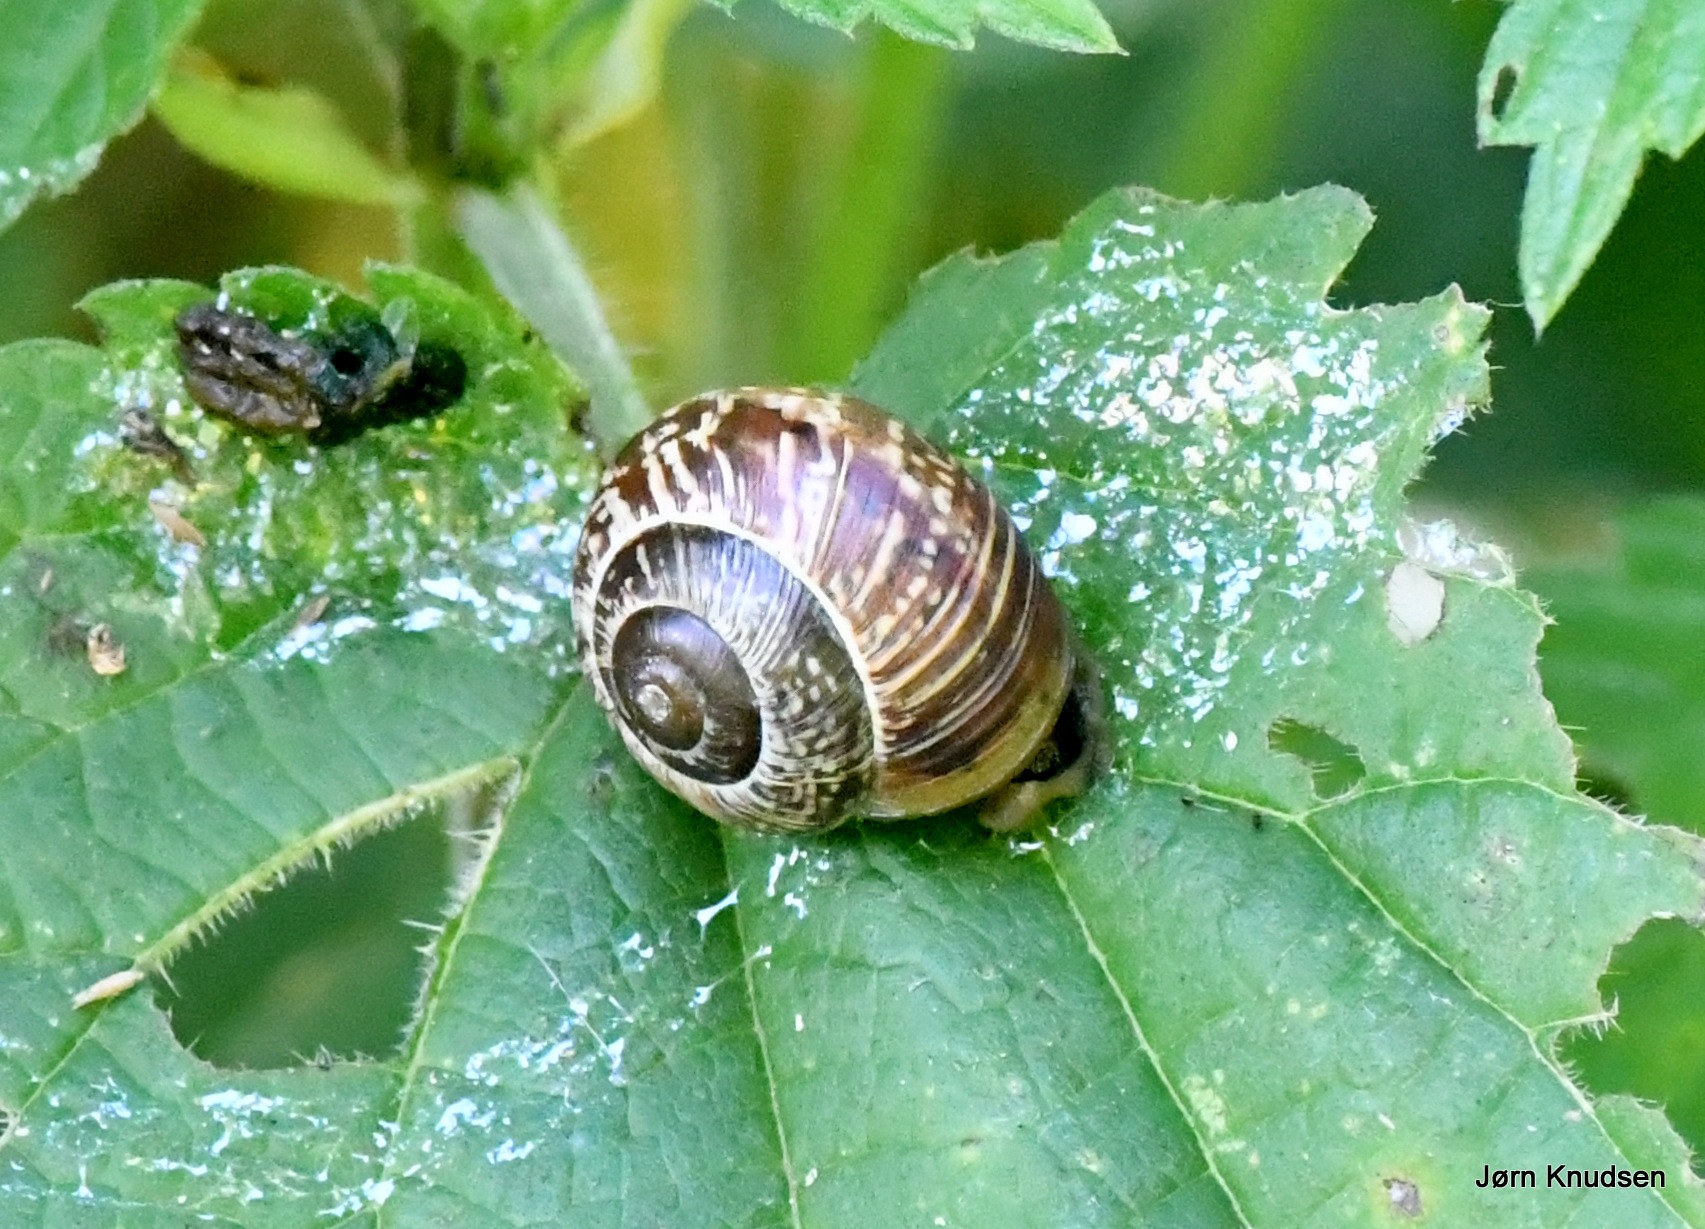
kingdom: Animalia
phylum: Mollusca
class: Gastropoda
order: Stylommatophora
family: Helicidae
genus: Arianta
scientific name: Arianta arbustorum
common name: Kratsnegl
